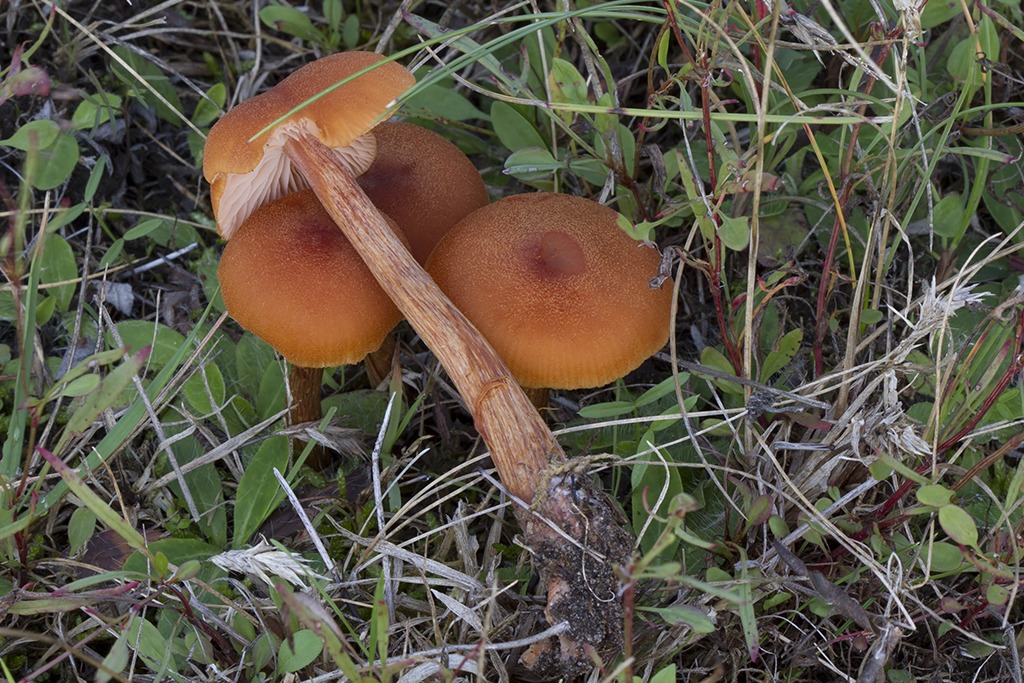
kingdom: Fungi
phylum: Basidiomycota
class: Agaricomycetes
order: Agaricales
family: Hydnangiaceae
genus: Laccaria
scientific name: Laccaria proxima
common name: stor ametysthat
